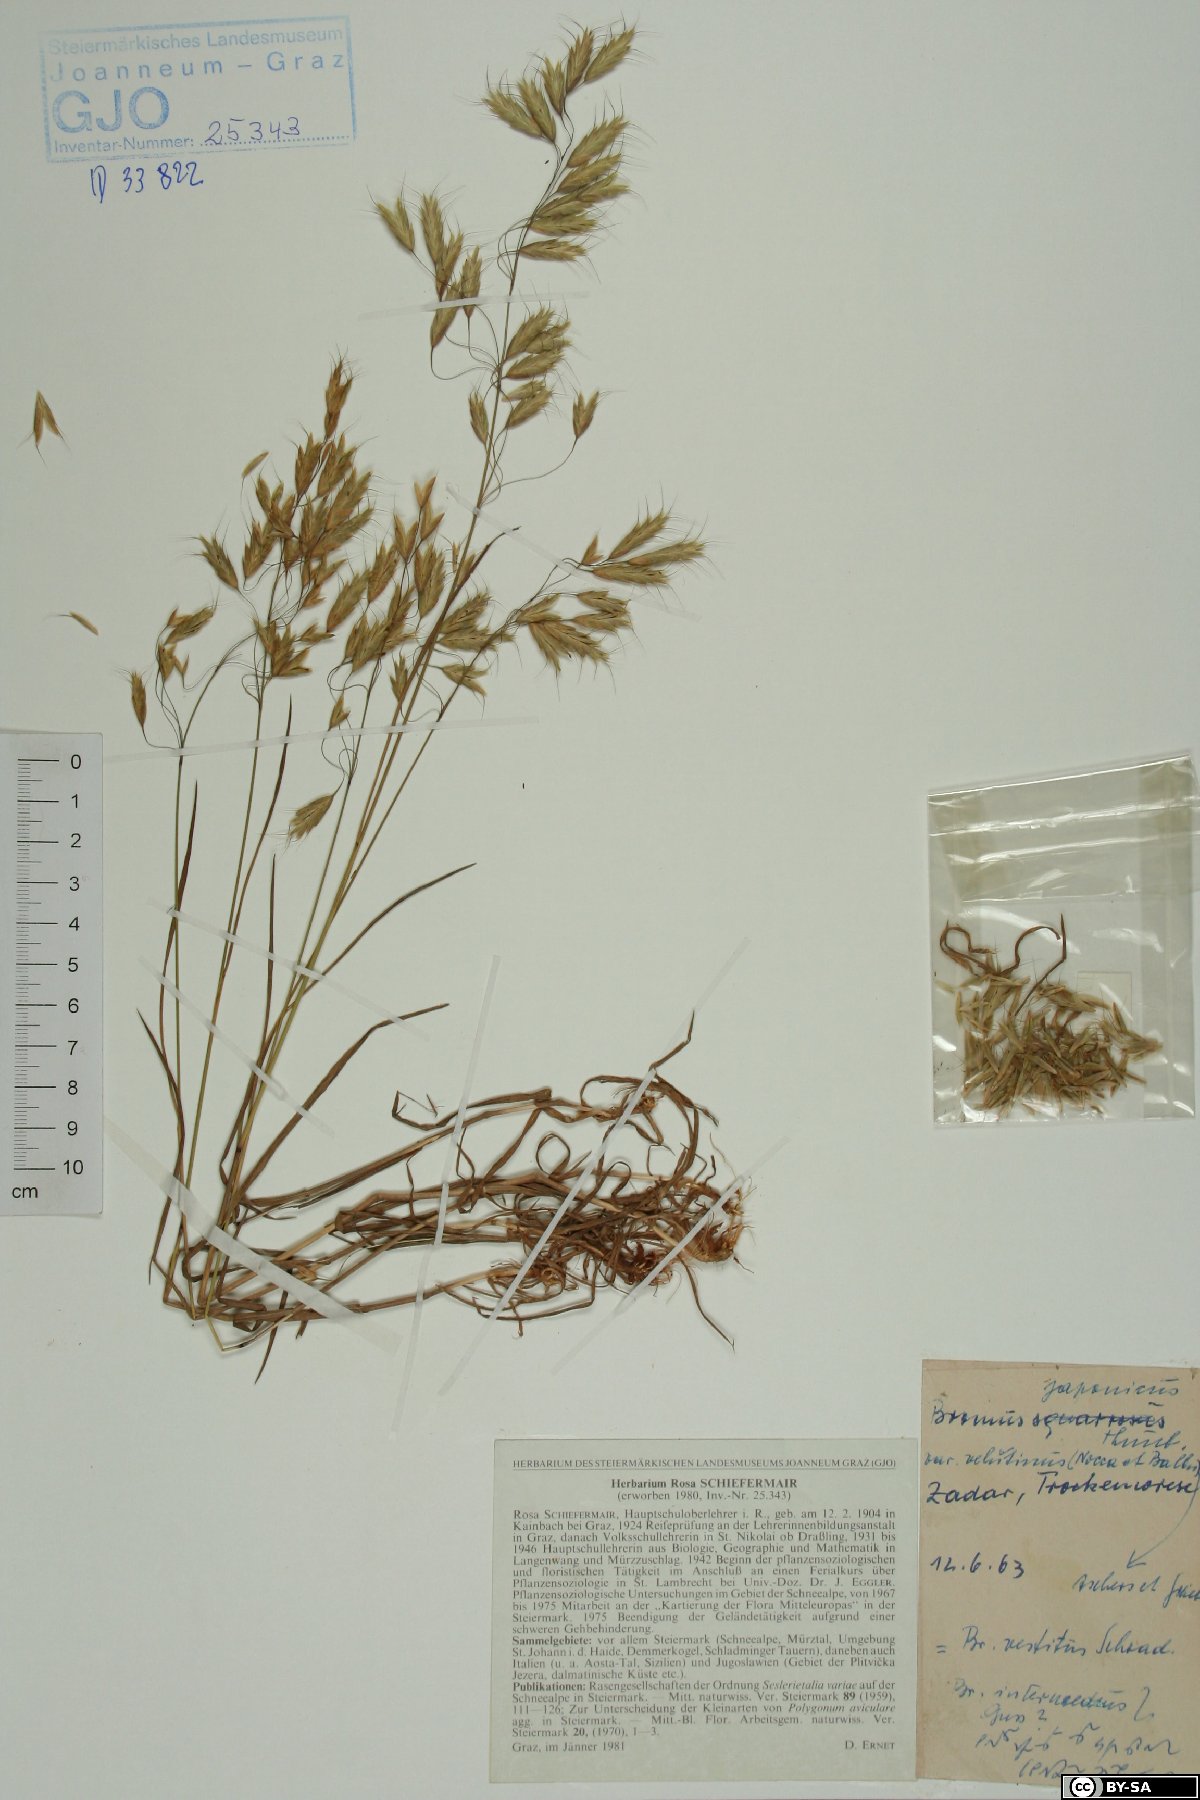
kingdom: Plantae
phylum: Tracheophyta
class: Liliopsida
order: Poales
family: Poaceae
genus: Bromus
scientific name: Bromus japonicus
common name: Japanese brome
